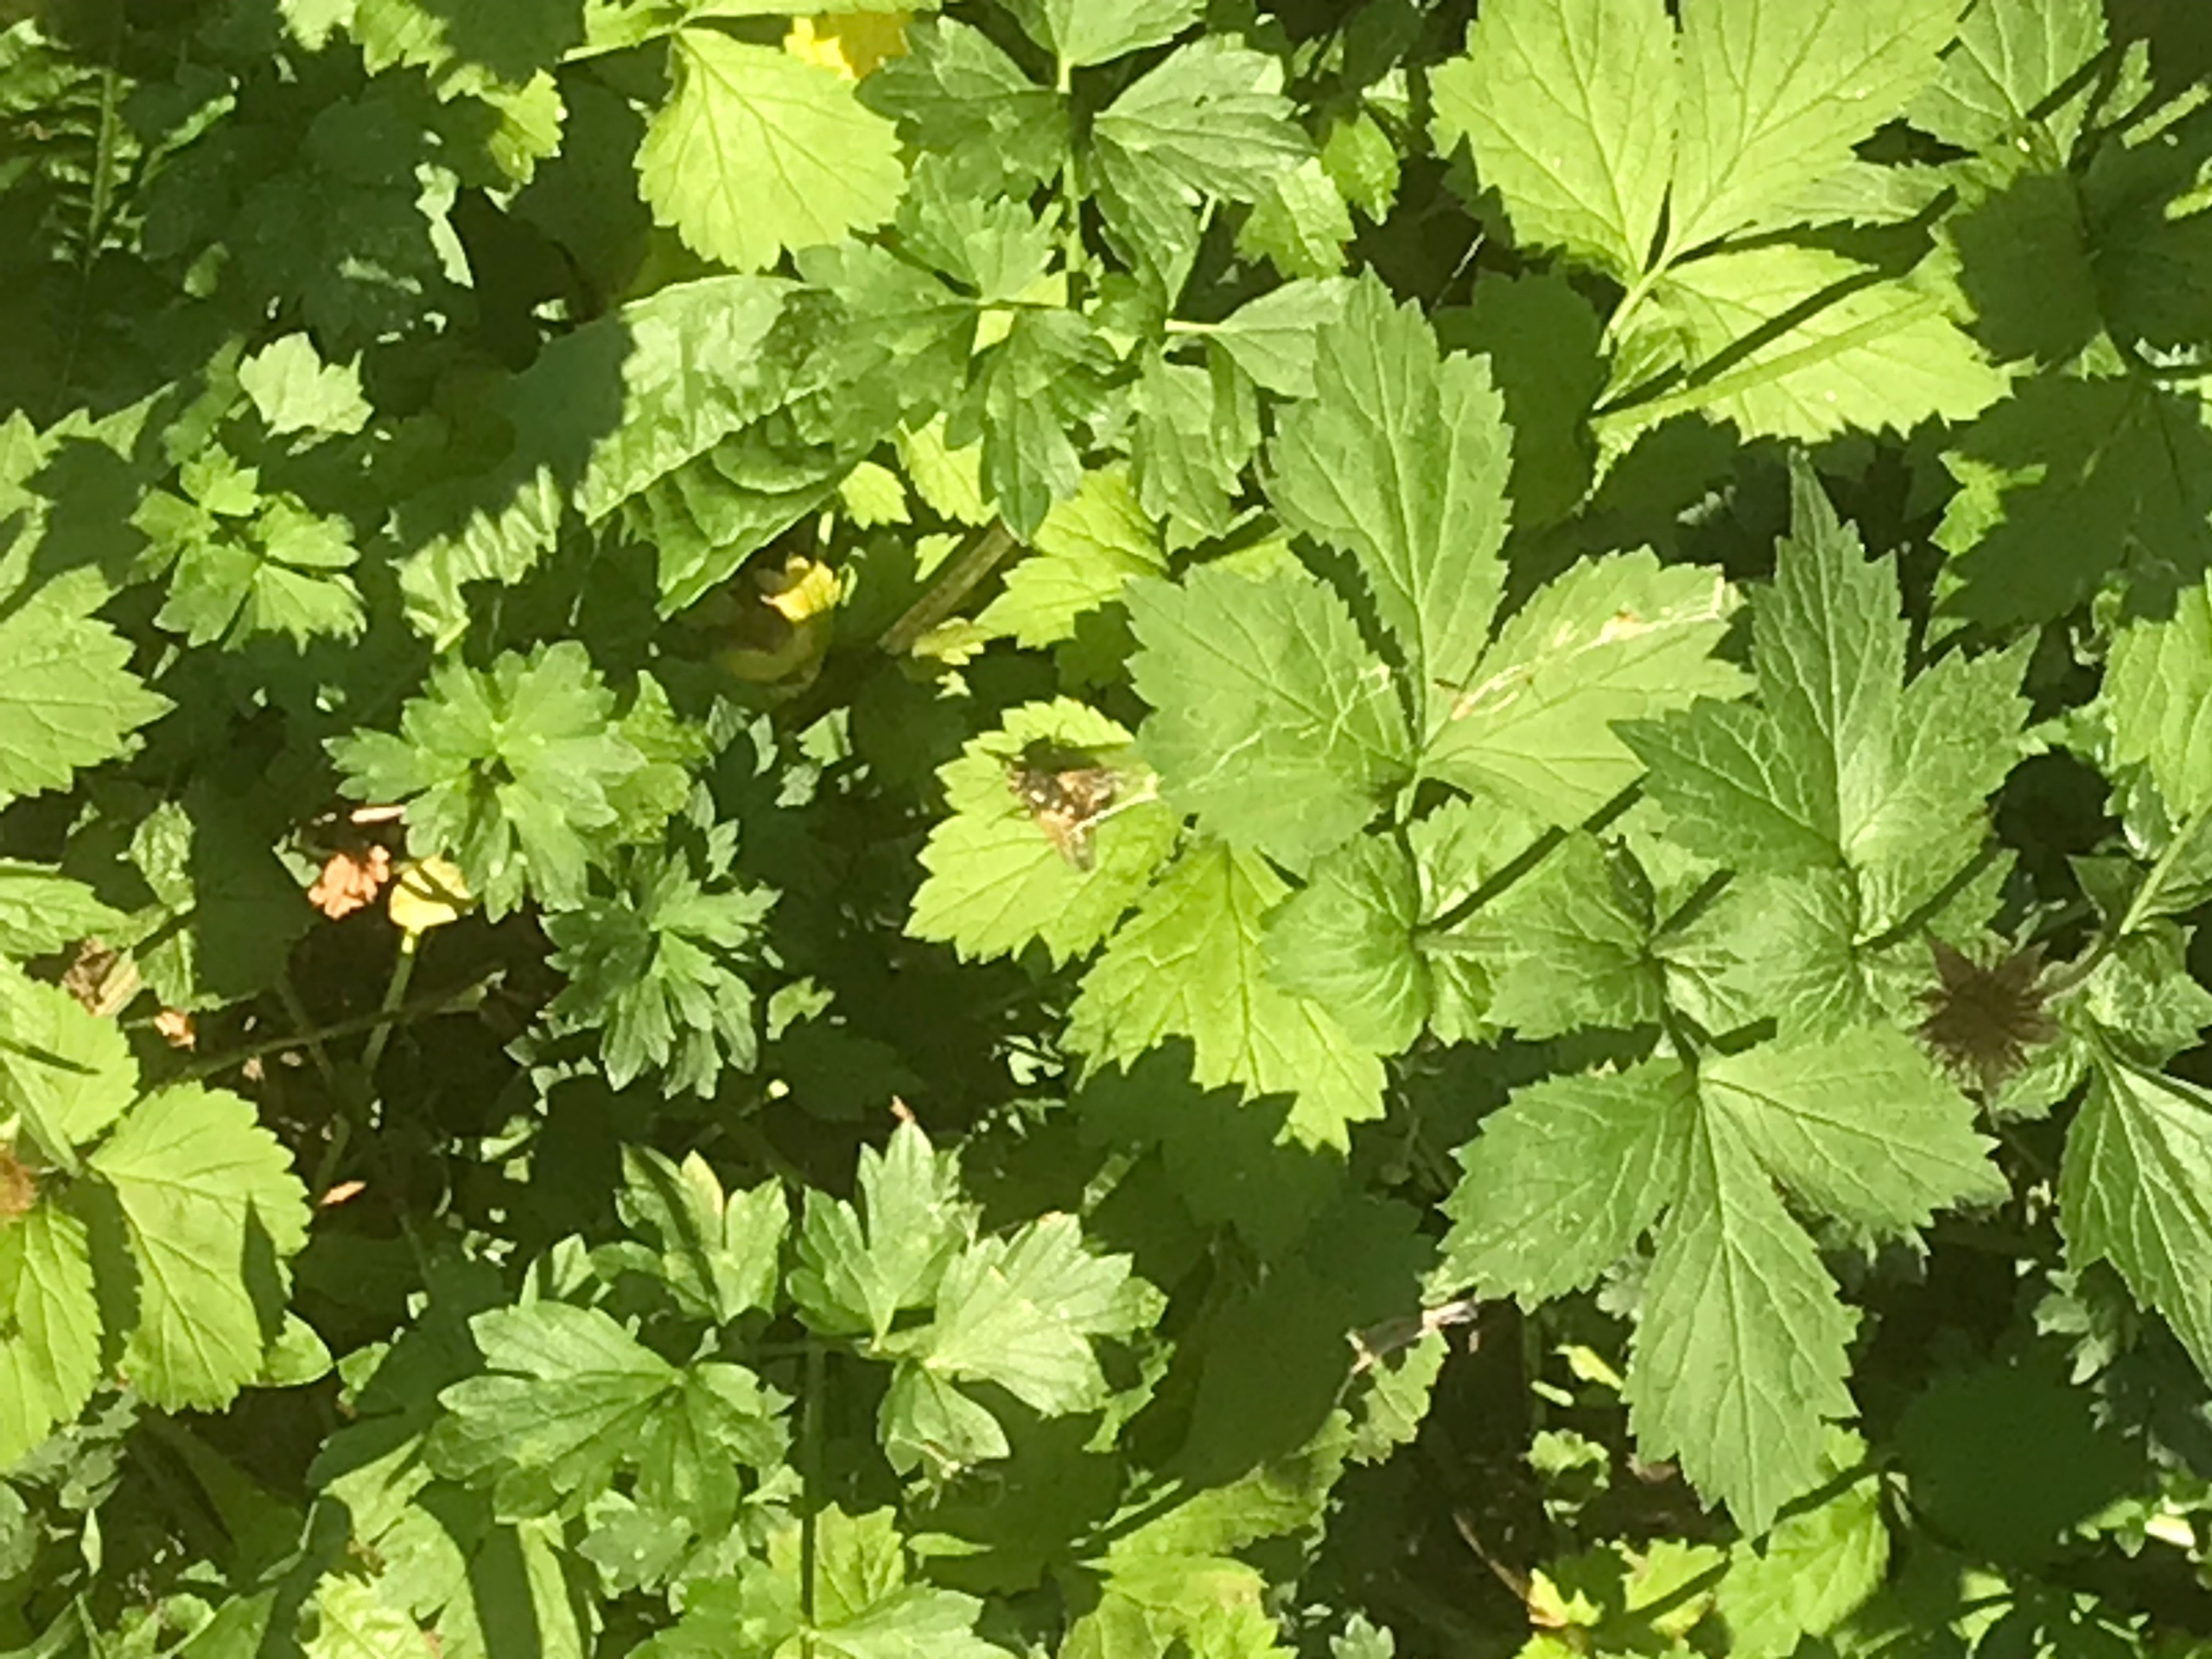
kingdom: Animalia
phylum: Arthropoda
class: Insecta
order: Diptera
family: Tachinidae
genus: Tachina
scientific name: Tachina fera
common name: Mellemfluen oskar
